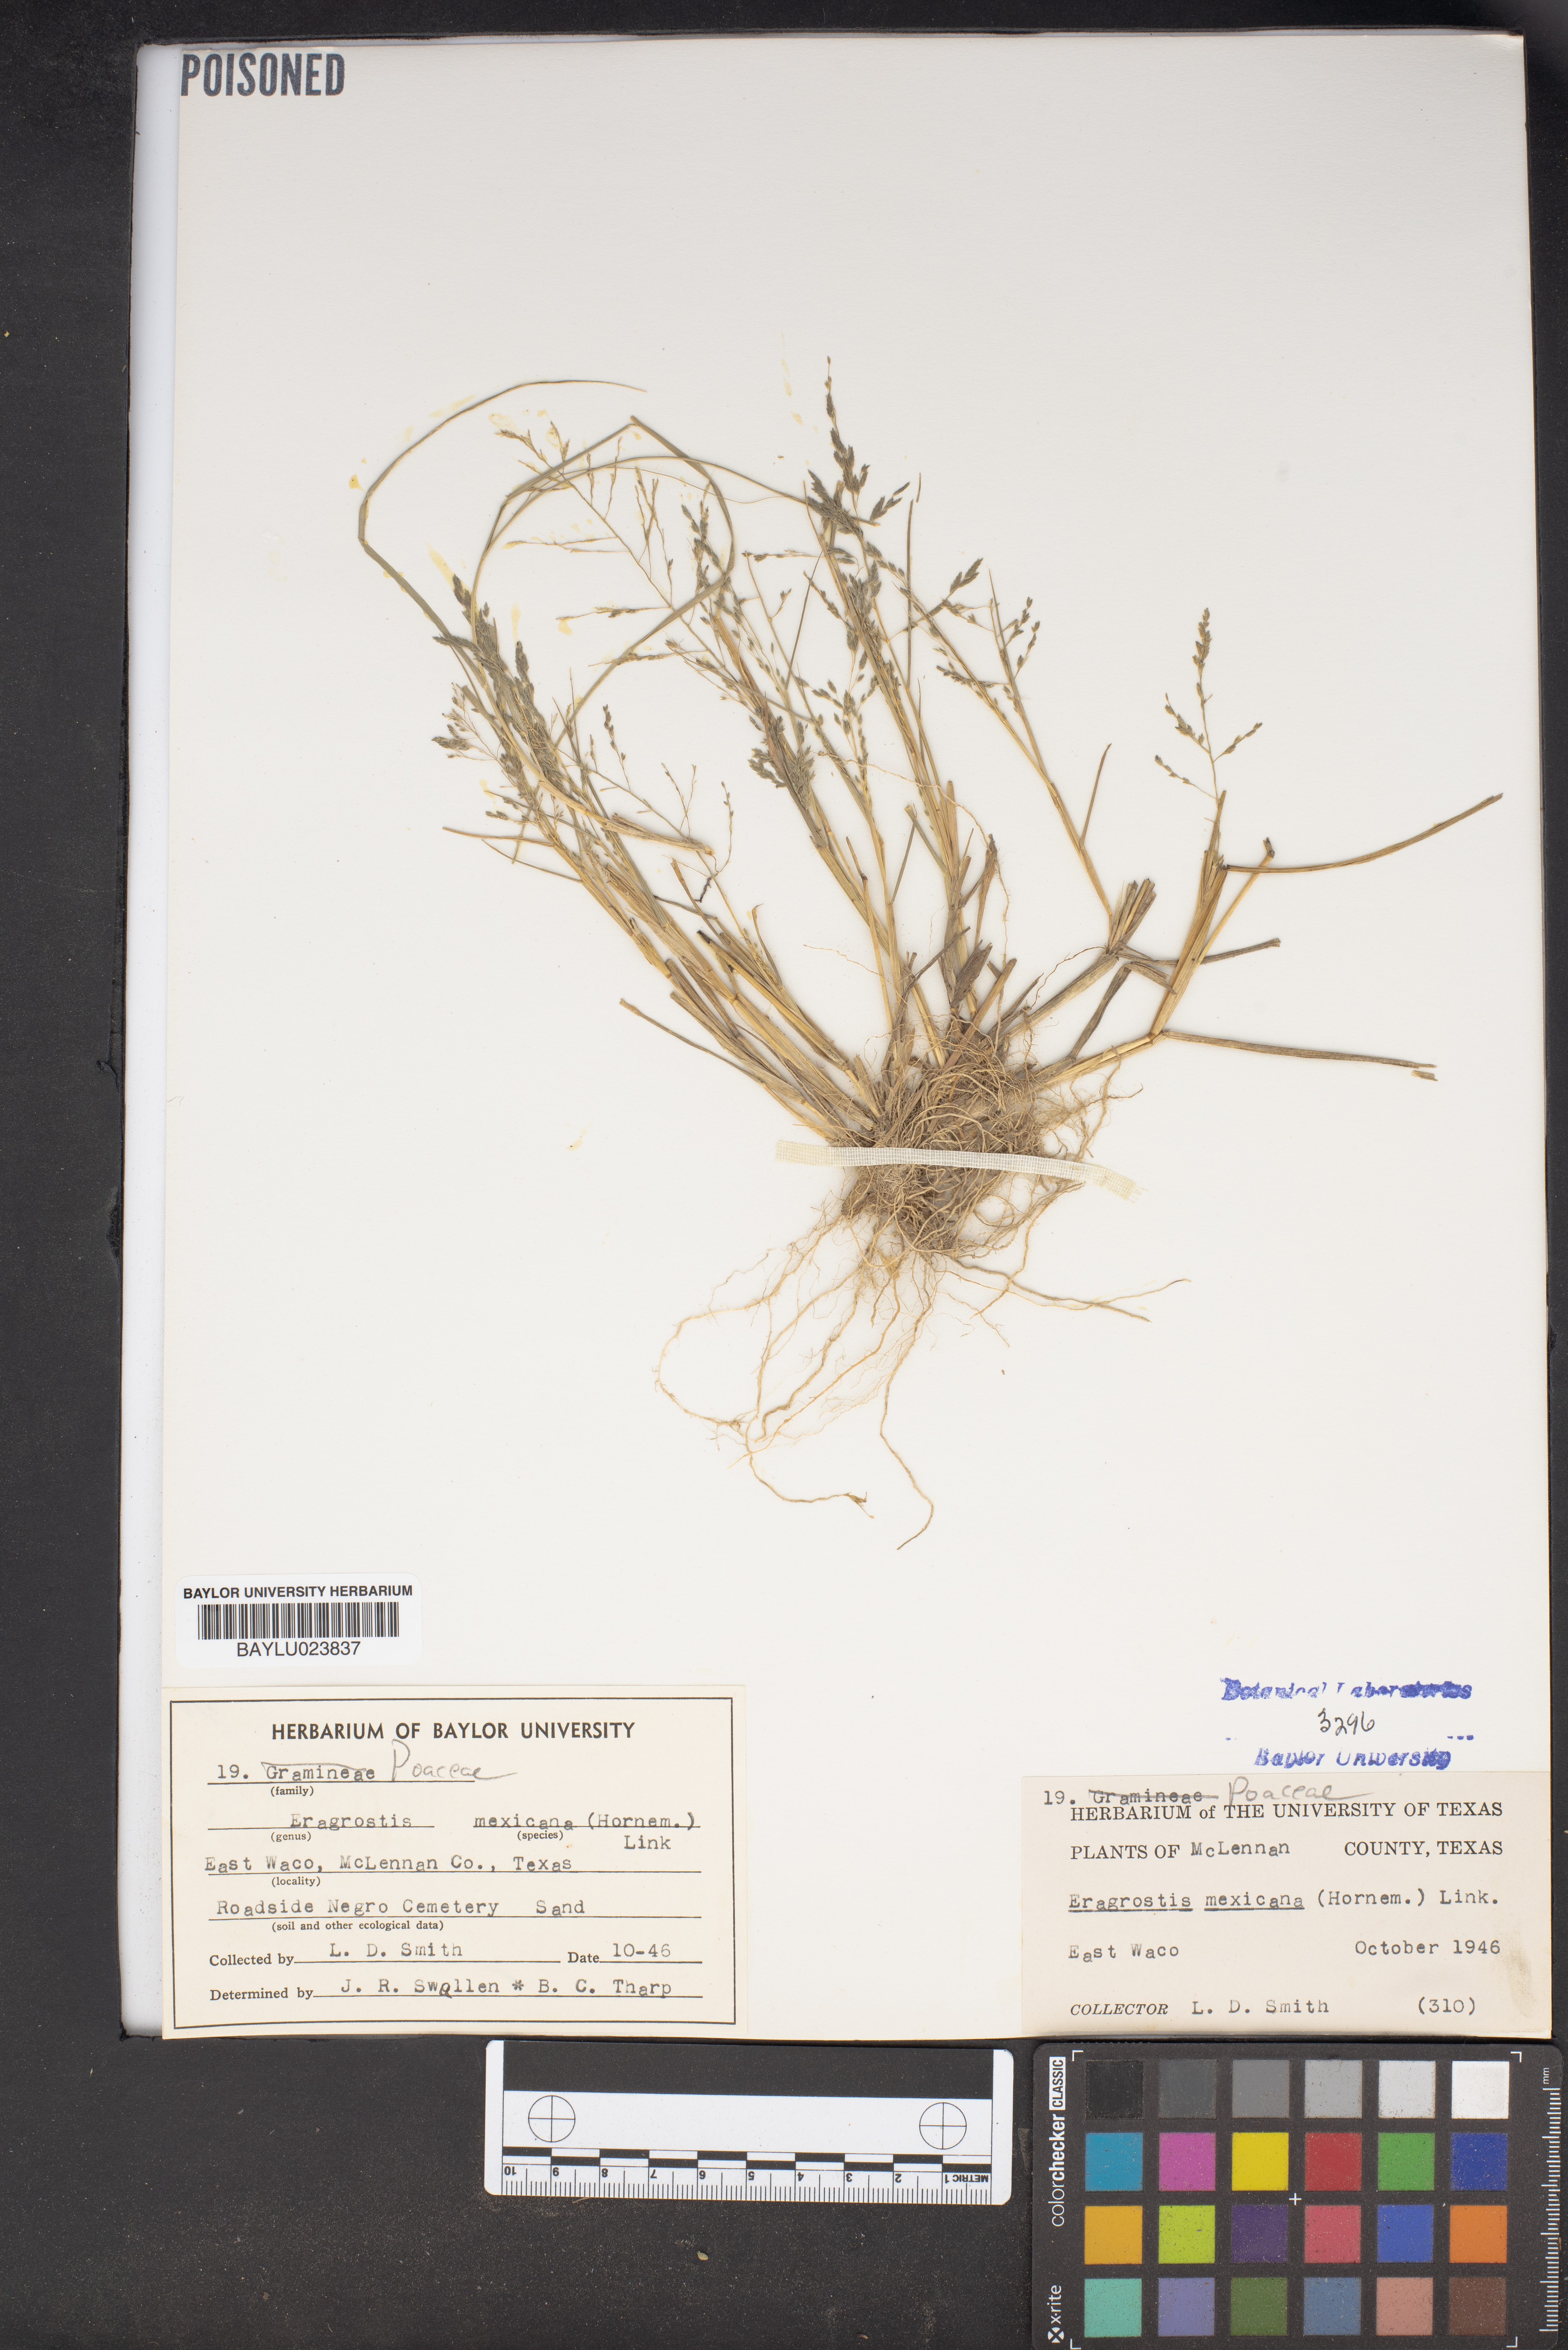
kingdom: Plantae
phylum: Tracheophyta
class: Liliopsida
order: Poales
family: Poaceae
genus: Eragrostis
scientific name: Eragrostis mexicana
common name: Mexican love grass
